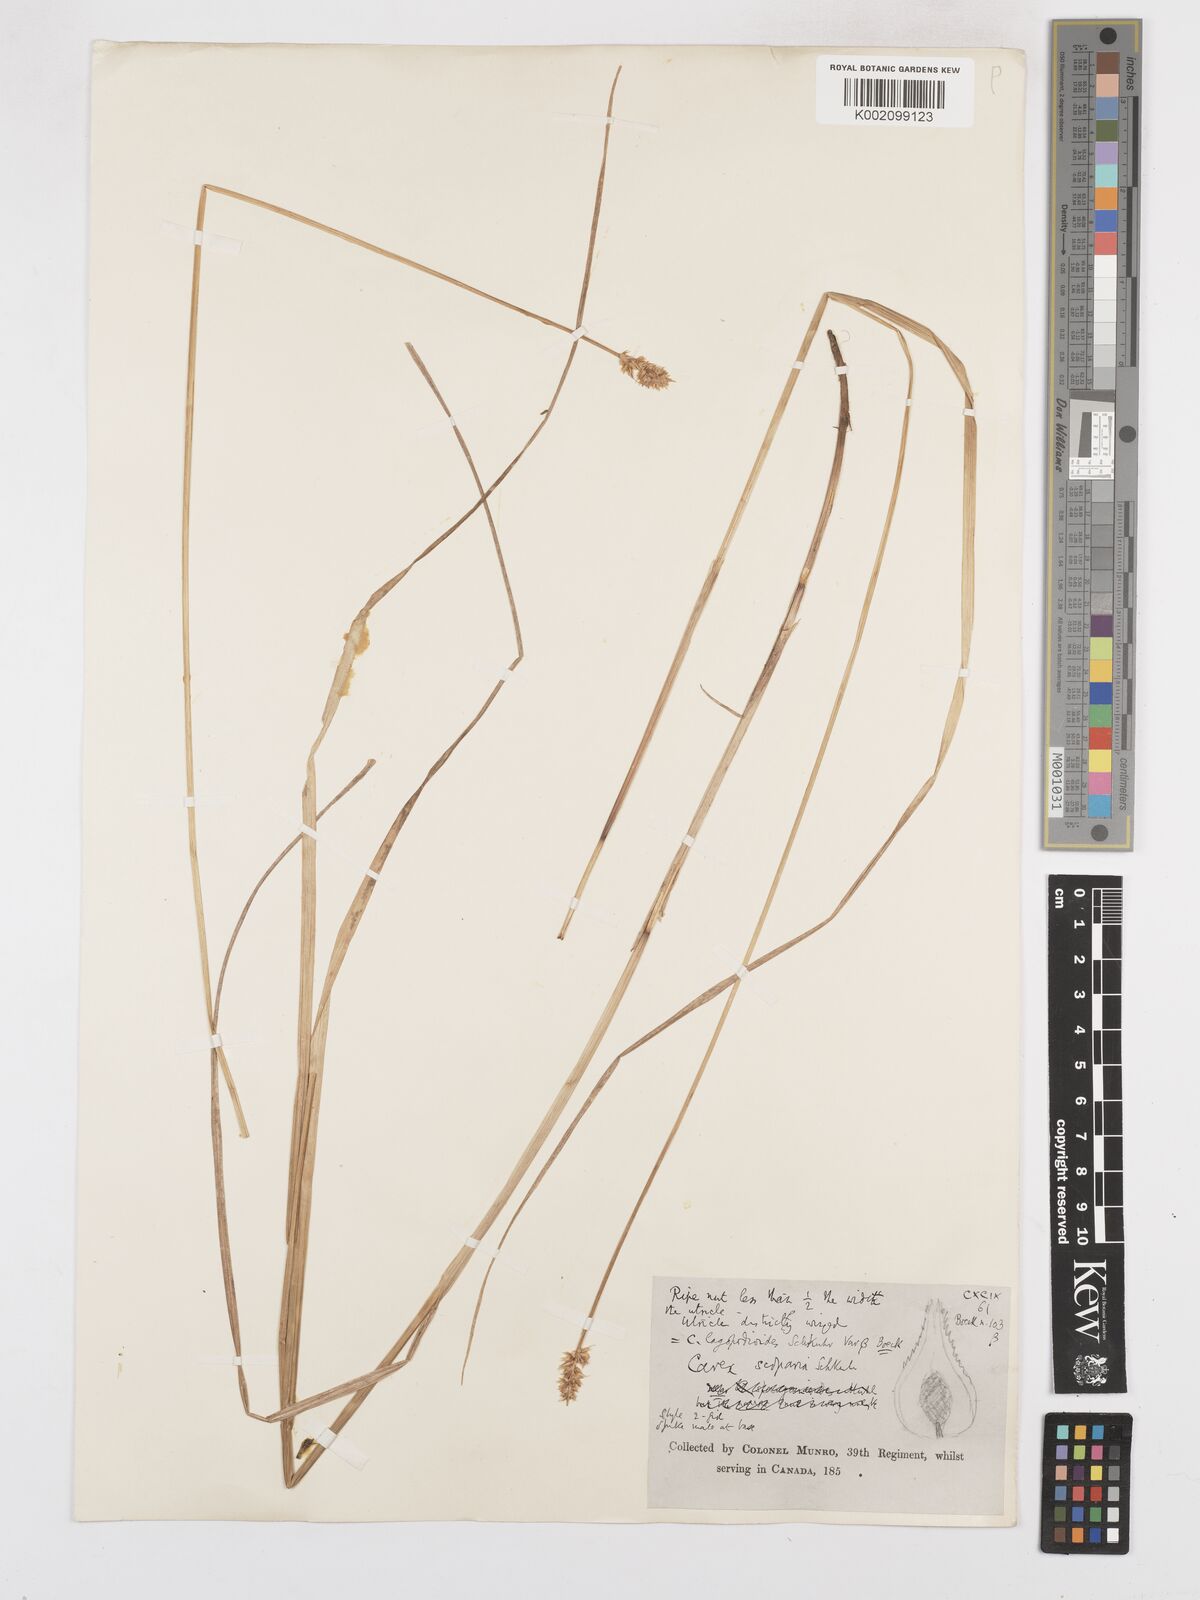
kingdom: Plantae
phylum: Tracheophyta
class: Liliopsida
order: Poales
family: Cyperaceae
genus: Carex
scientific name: Carex stipata
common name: Awl-fruited sedge
